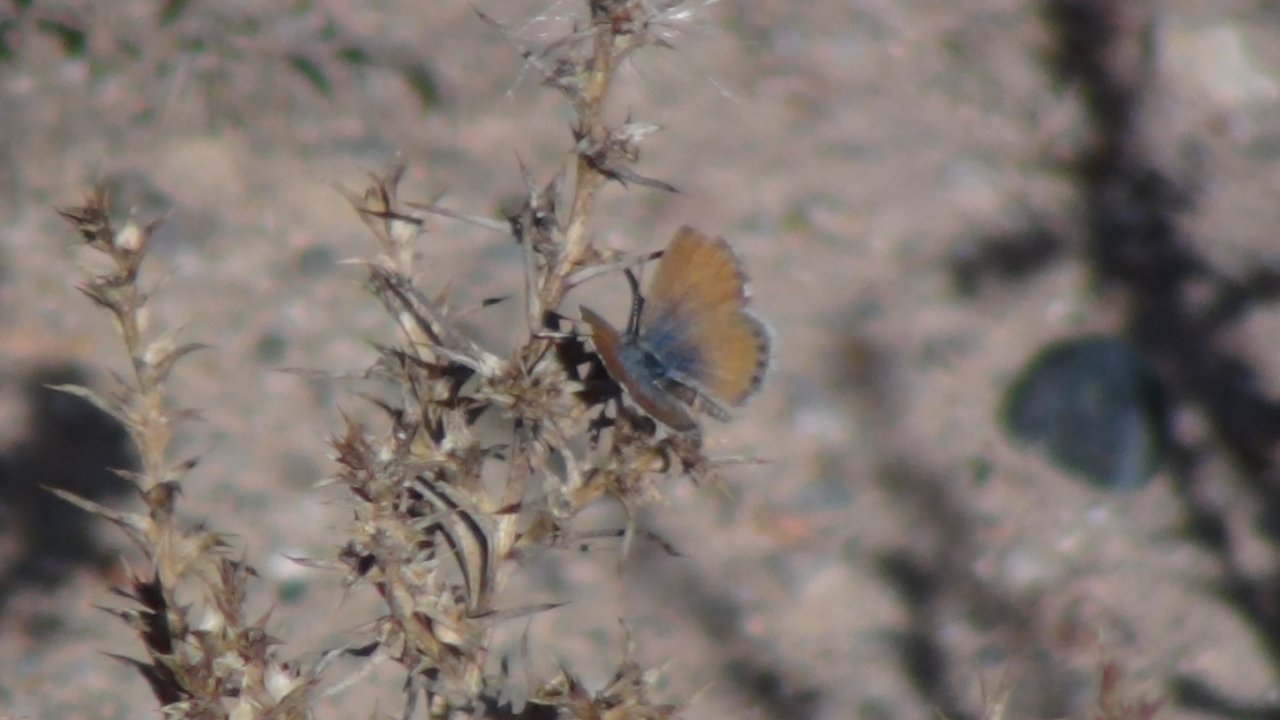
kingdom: Animalia
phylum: Arthropoda
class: Insecta
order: Lepidoptera
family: Lycaenidae
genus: Brephidium
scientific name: Brephidium exilis
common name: Western Pygmy-Blue
